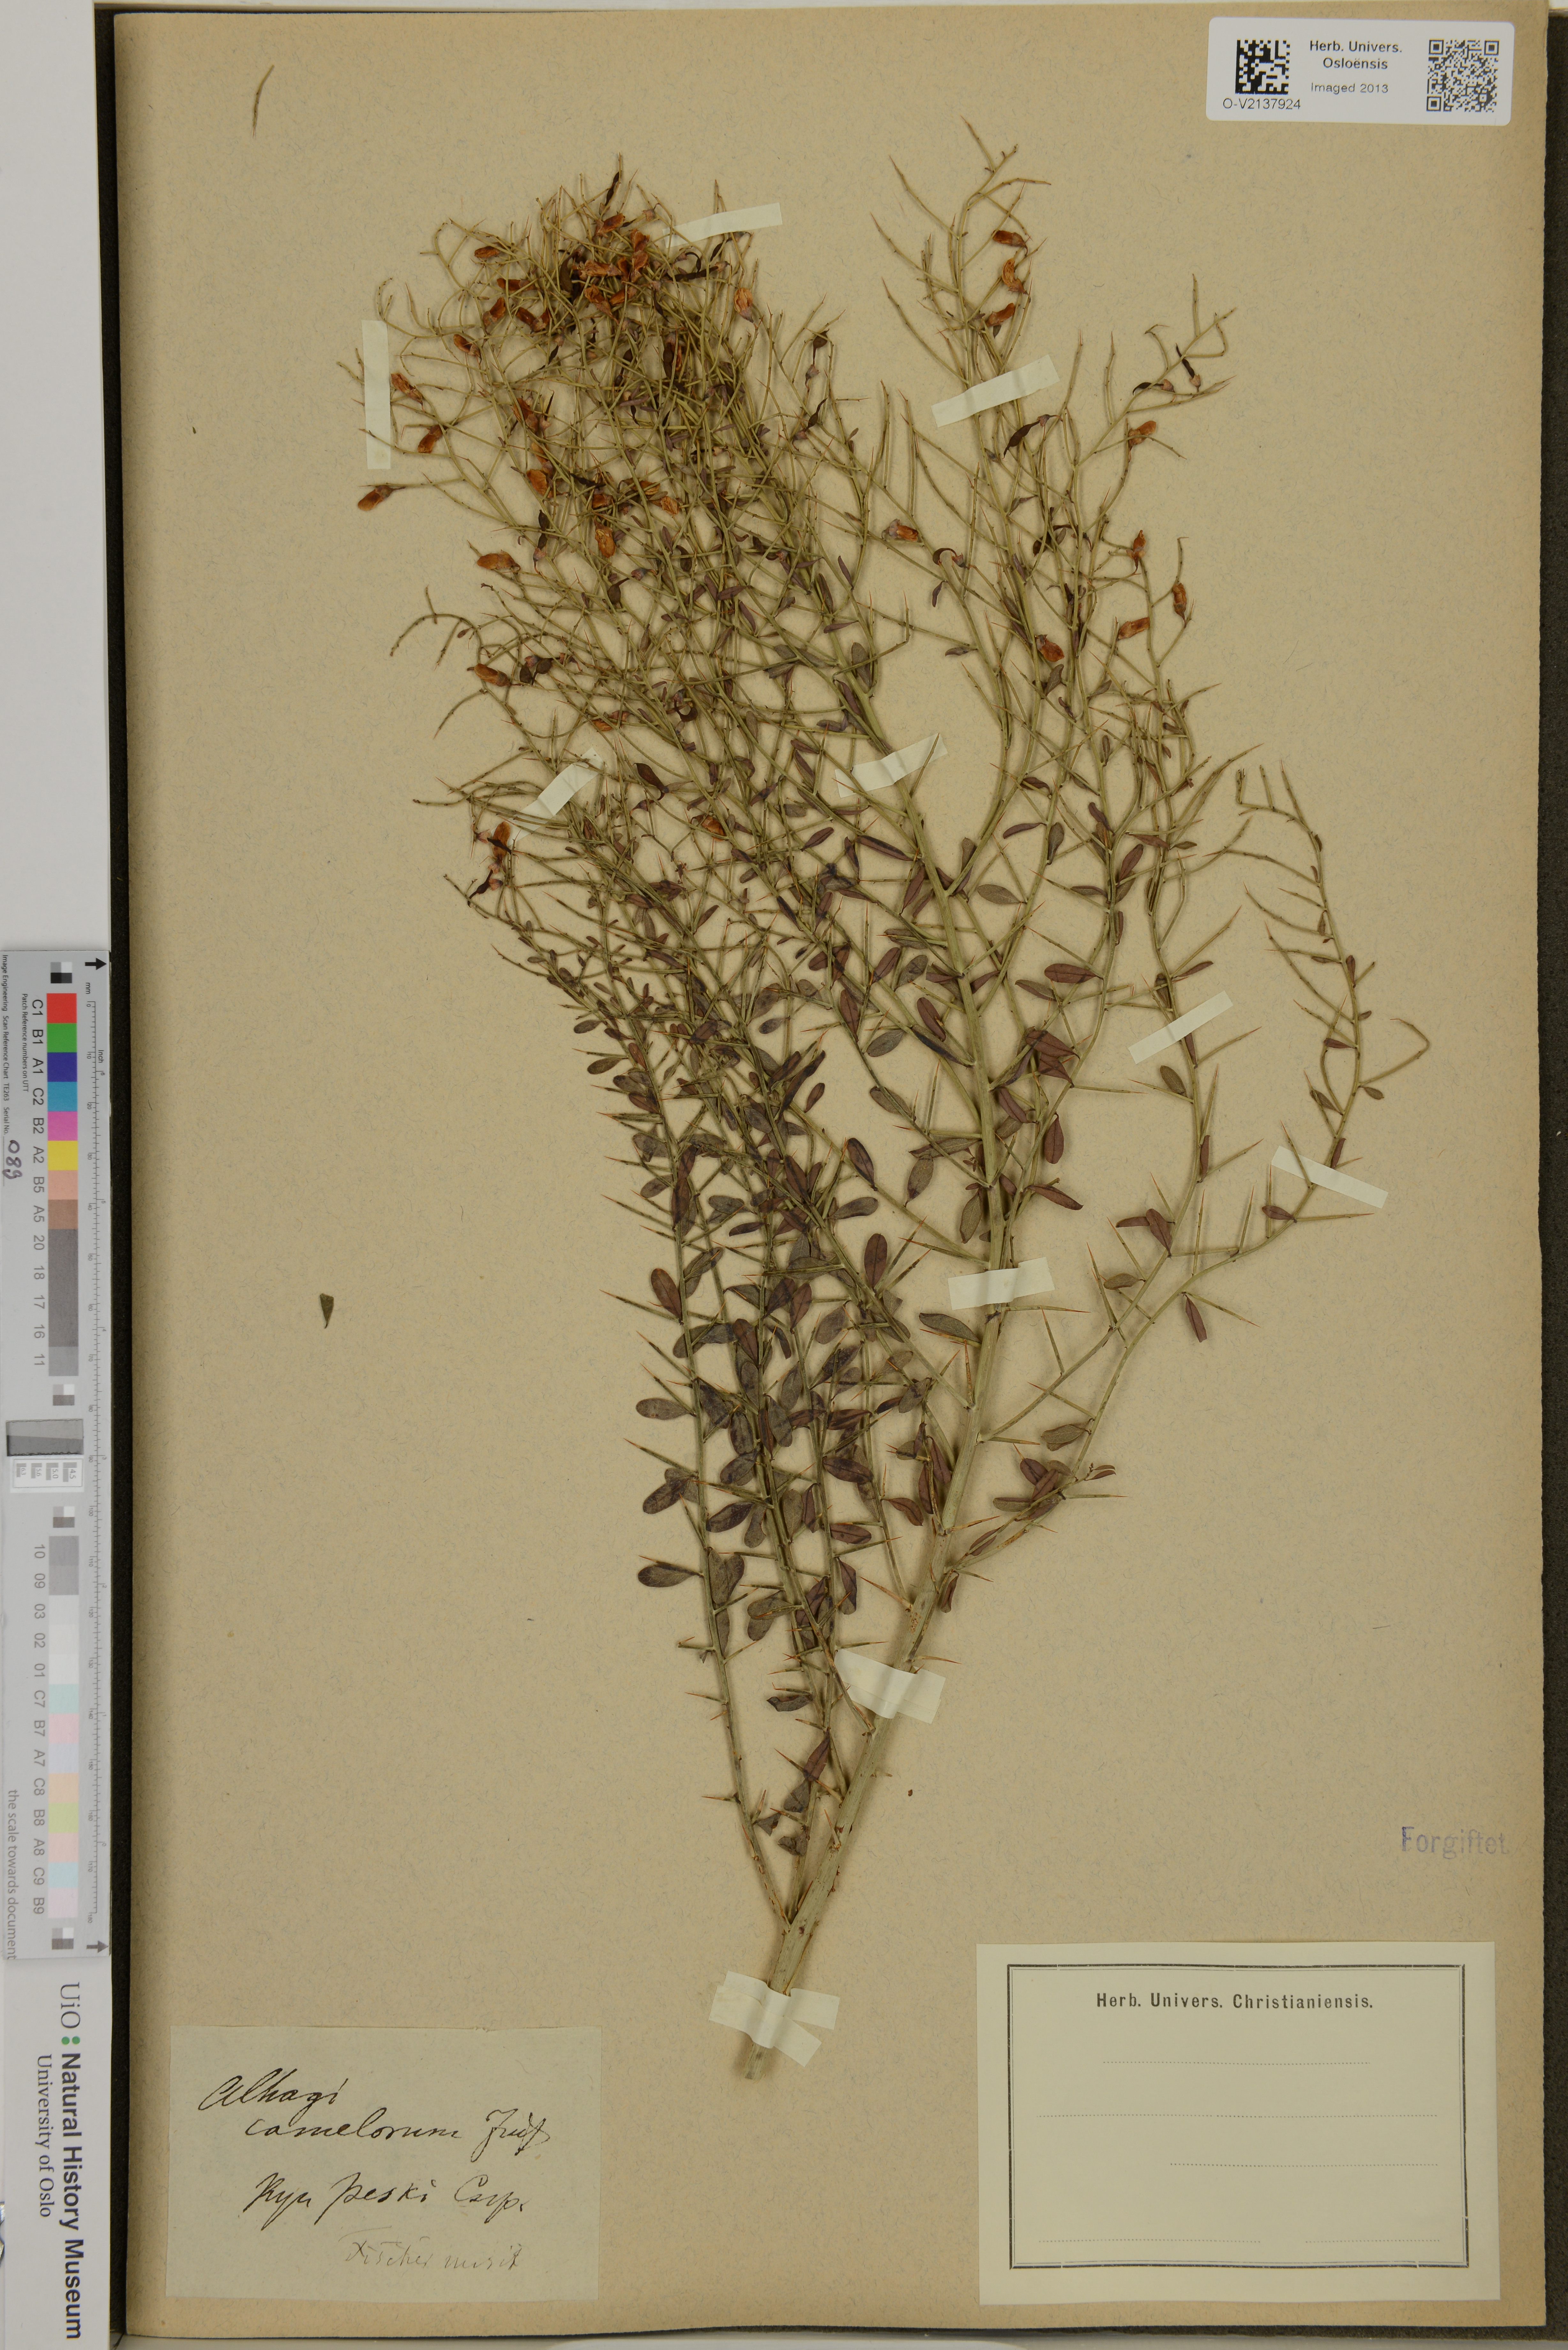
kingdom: Plantae
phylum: Tracheophyta
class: Magnoliopsida
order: Fabales
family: Fabaceae
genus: Alhagi
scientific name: Alhagi maurorum
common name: Camelthorn
